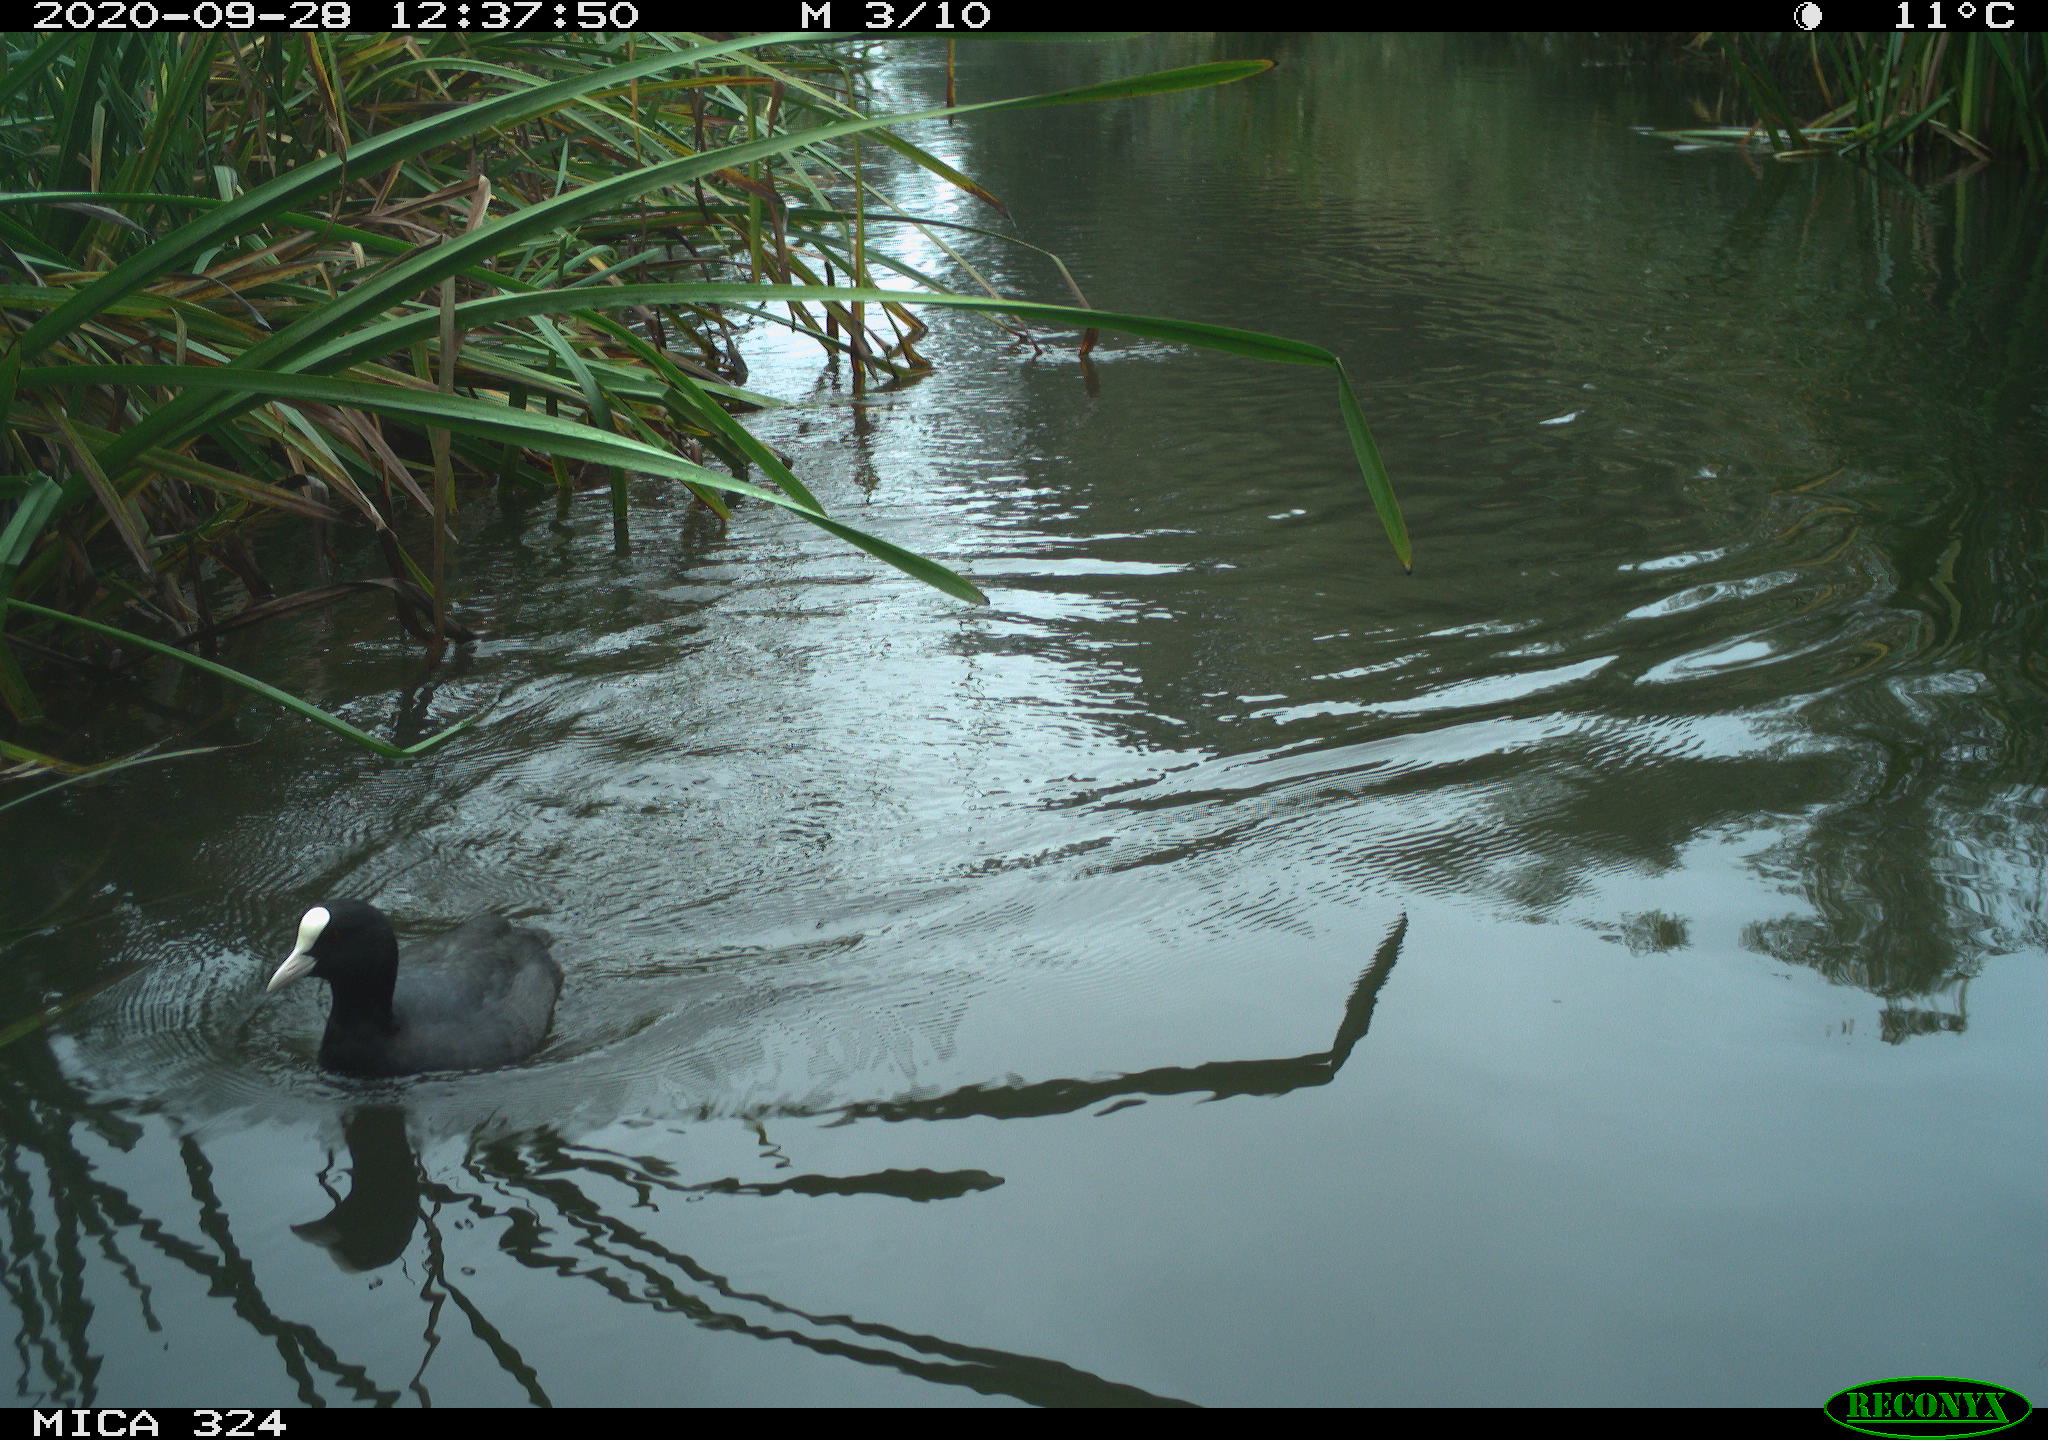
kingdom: Animalia
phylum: Chordata
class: Aves
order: Gruiformes
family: Rallidae
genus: Gallinula
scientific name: Gallinula chloropus
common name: Common moorhen
